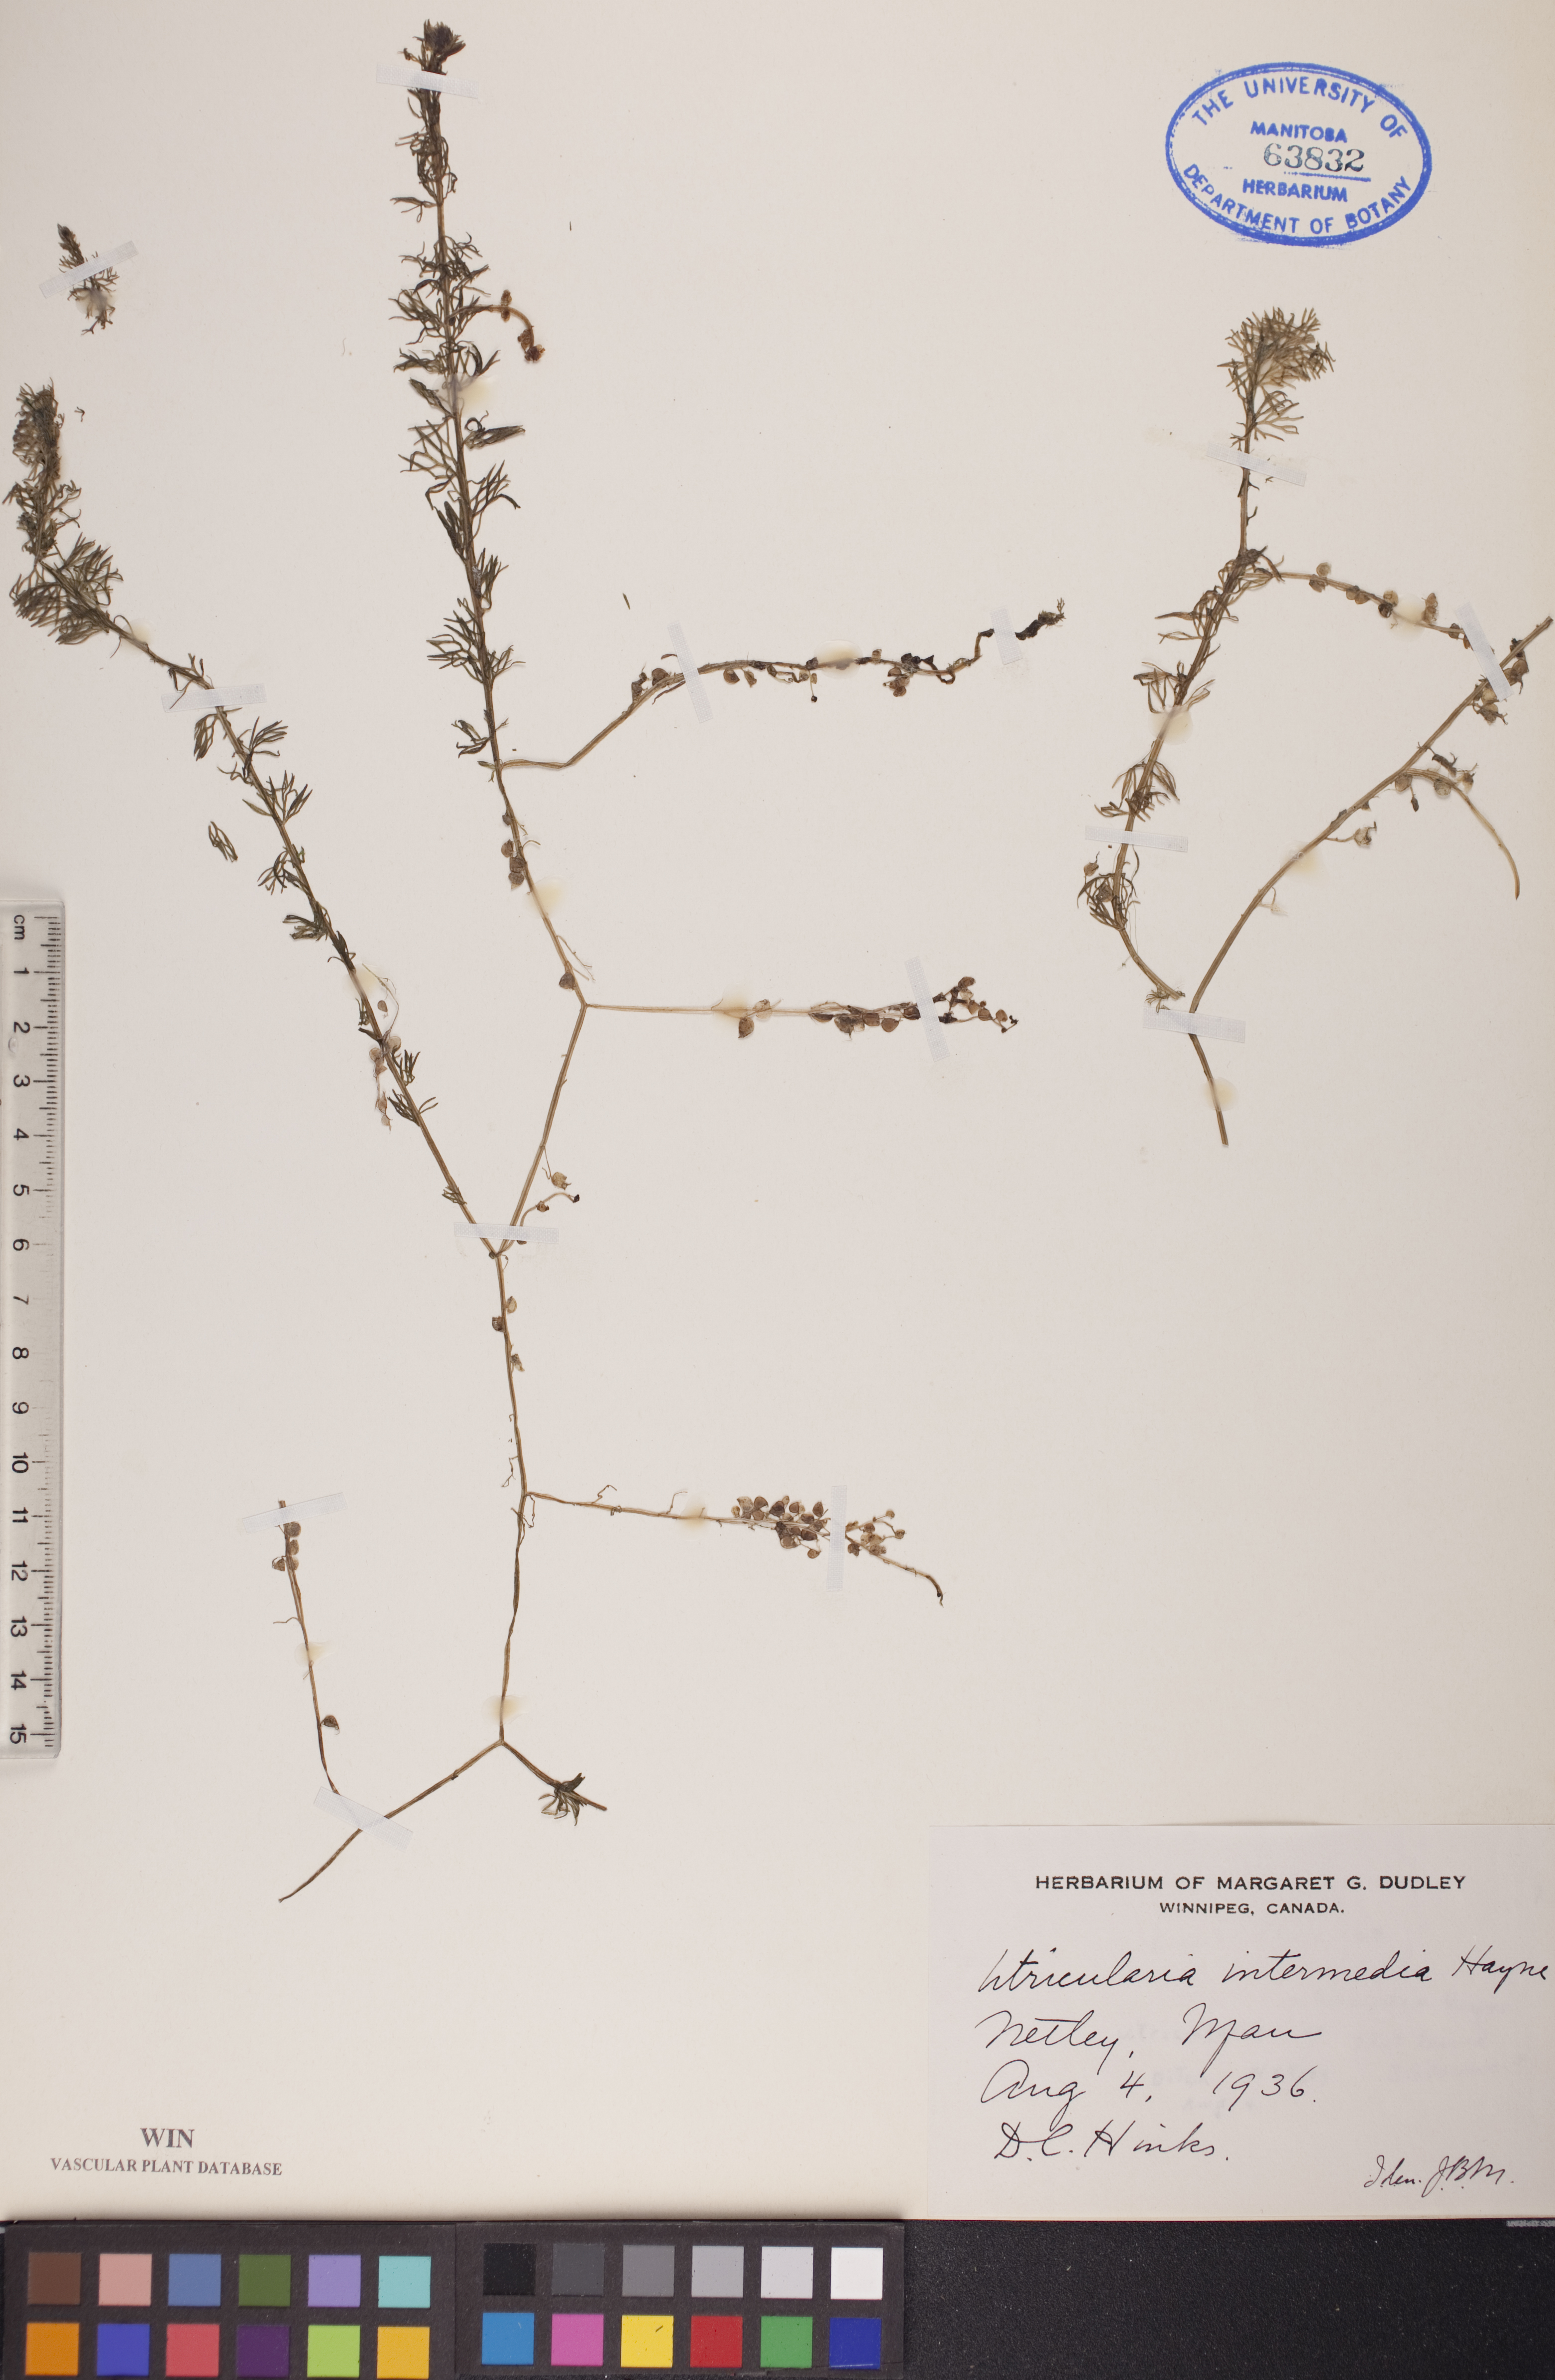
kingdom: Plantae
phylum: Tracheophyta
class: Magnoliopsida
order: Lamiales
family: Lentibulariaceae
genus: Utricularia
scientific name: Utricularia intermedia
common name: Intermediate bladderwort
